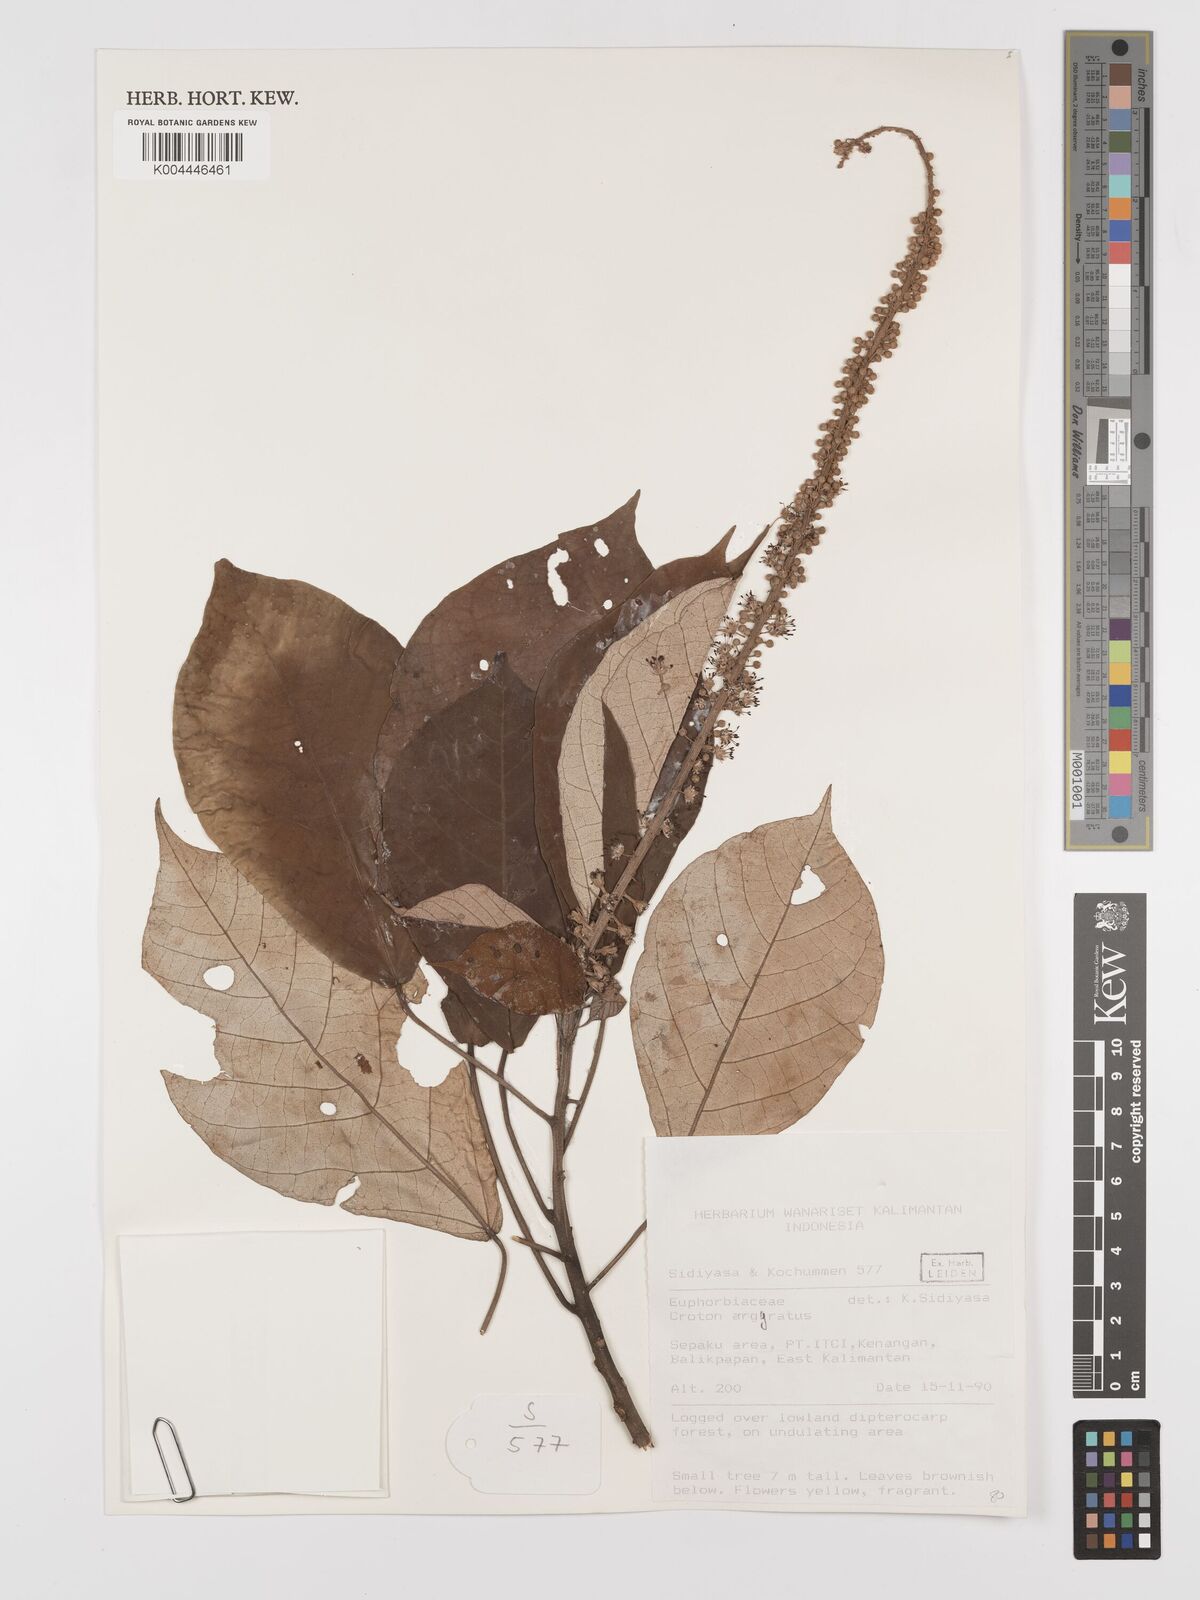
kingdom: Plantae
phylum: Tracheophyta
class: Magnoliopsida
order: Malpighiales
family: Euphorbiaceae
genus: Croton
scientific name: Croton argyratus
